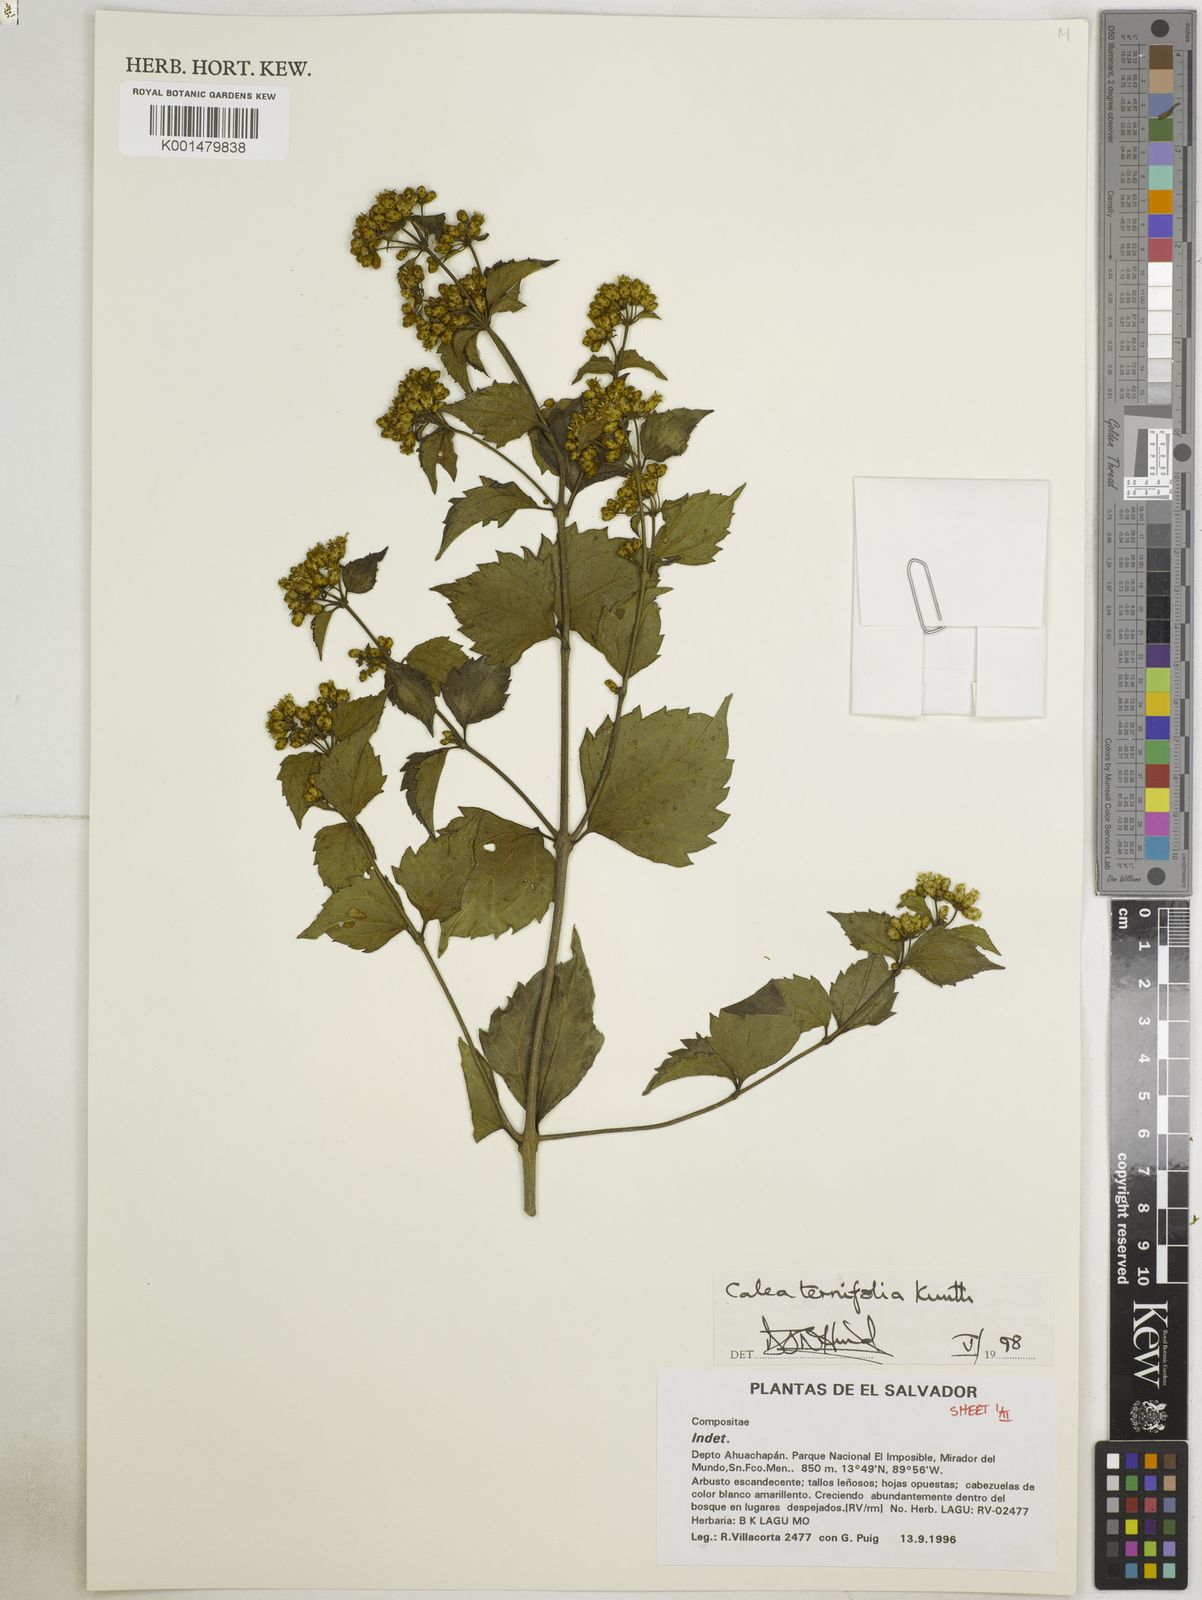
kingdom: Plantae
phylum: Tracheophyta
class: Magnoliopsida
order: Asterales
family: Asteraceae
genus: Calea
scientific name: Calea ternifolia
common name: Mexican calea
